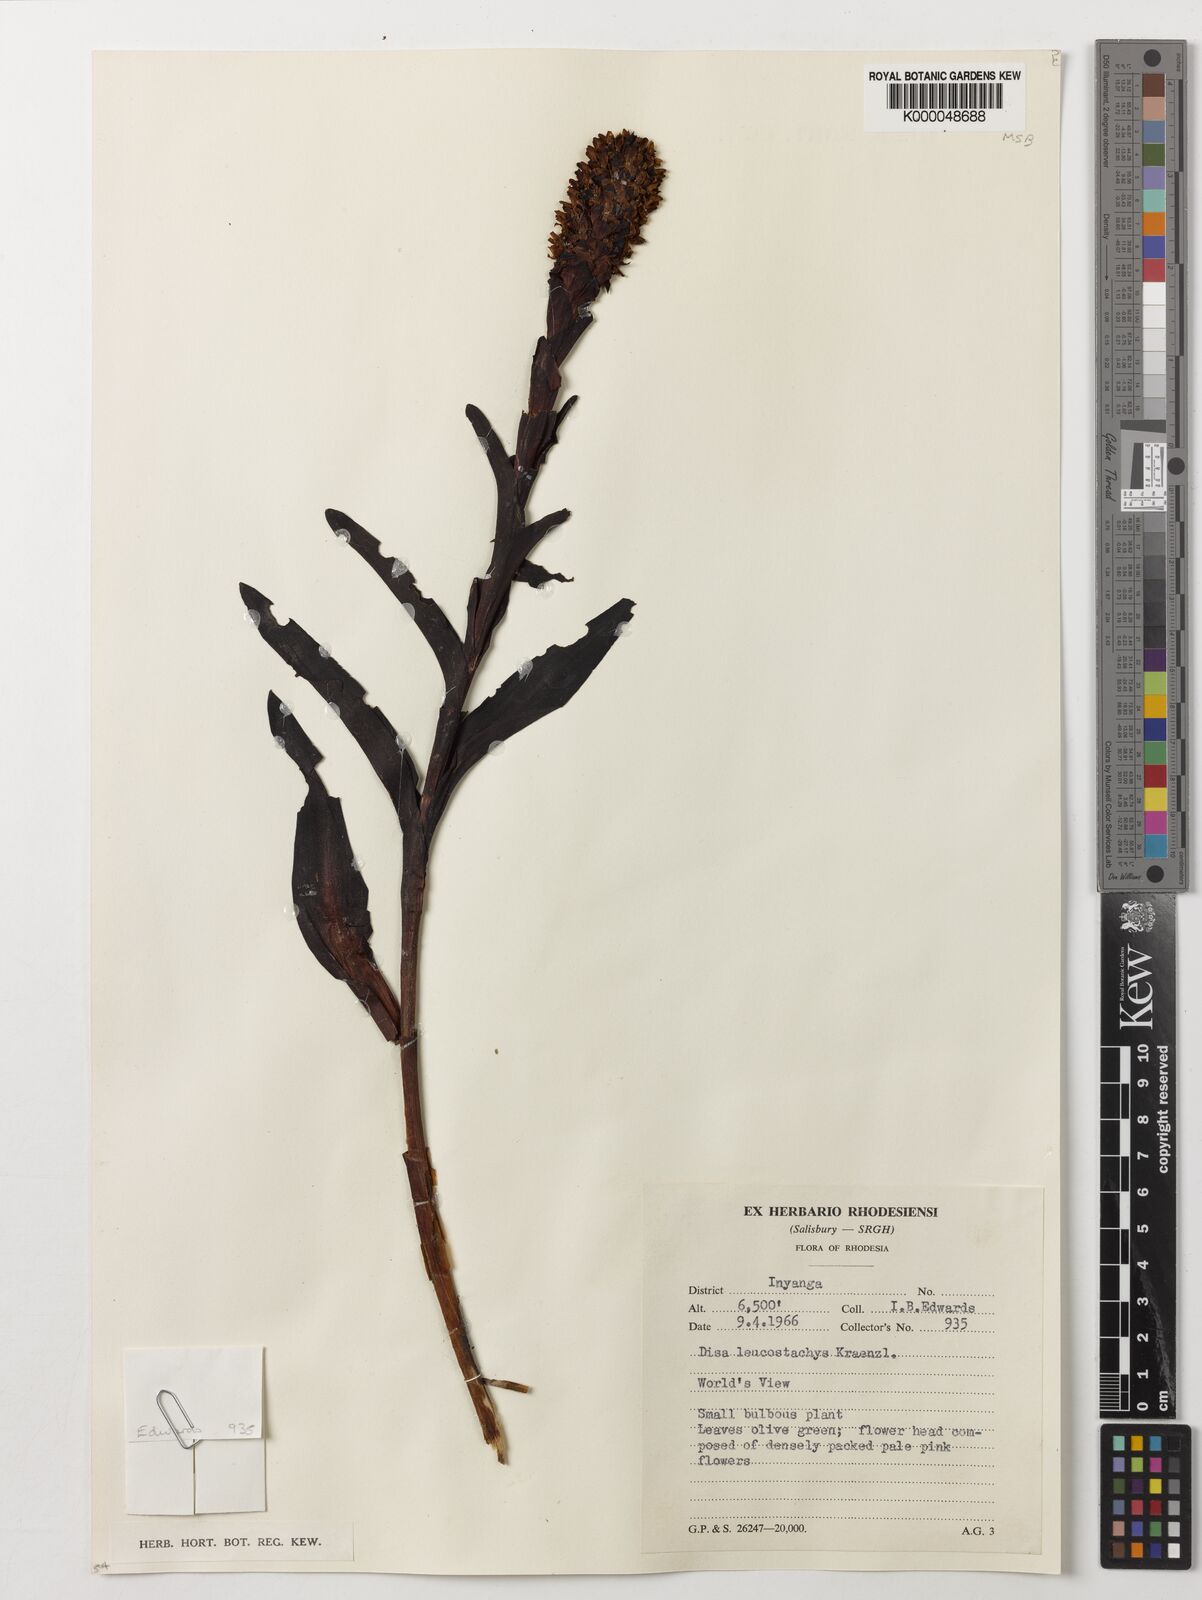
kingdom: Plantae
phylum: Tracheophyta
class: Liliopsida
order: Asparagales
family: Orchidaceae
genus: Disa
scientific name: Disa fragrans
